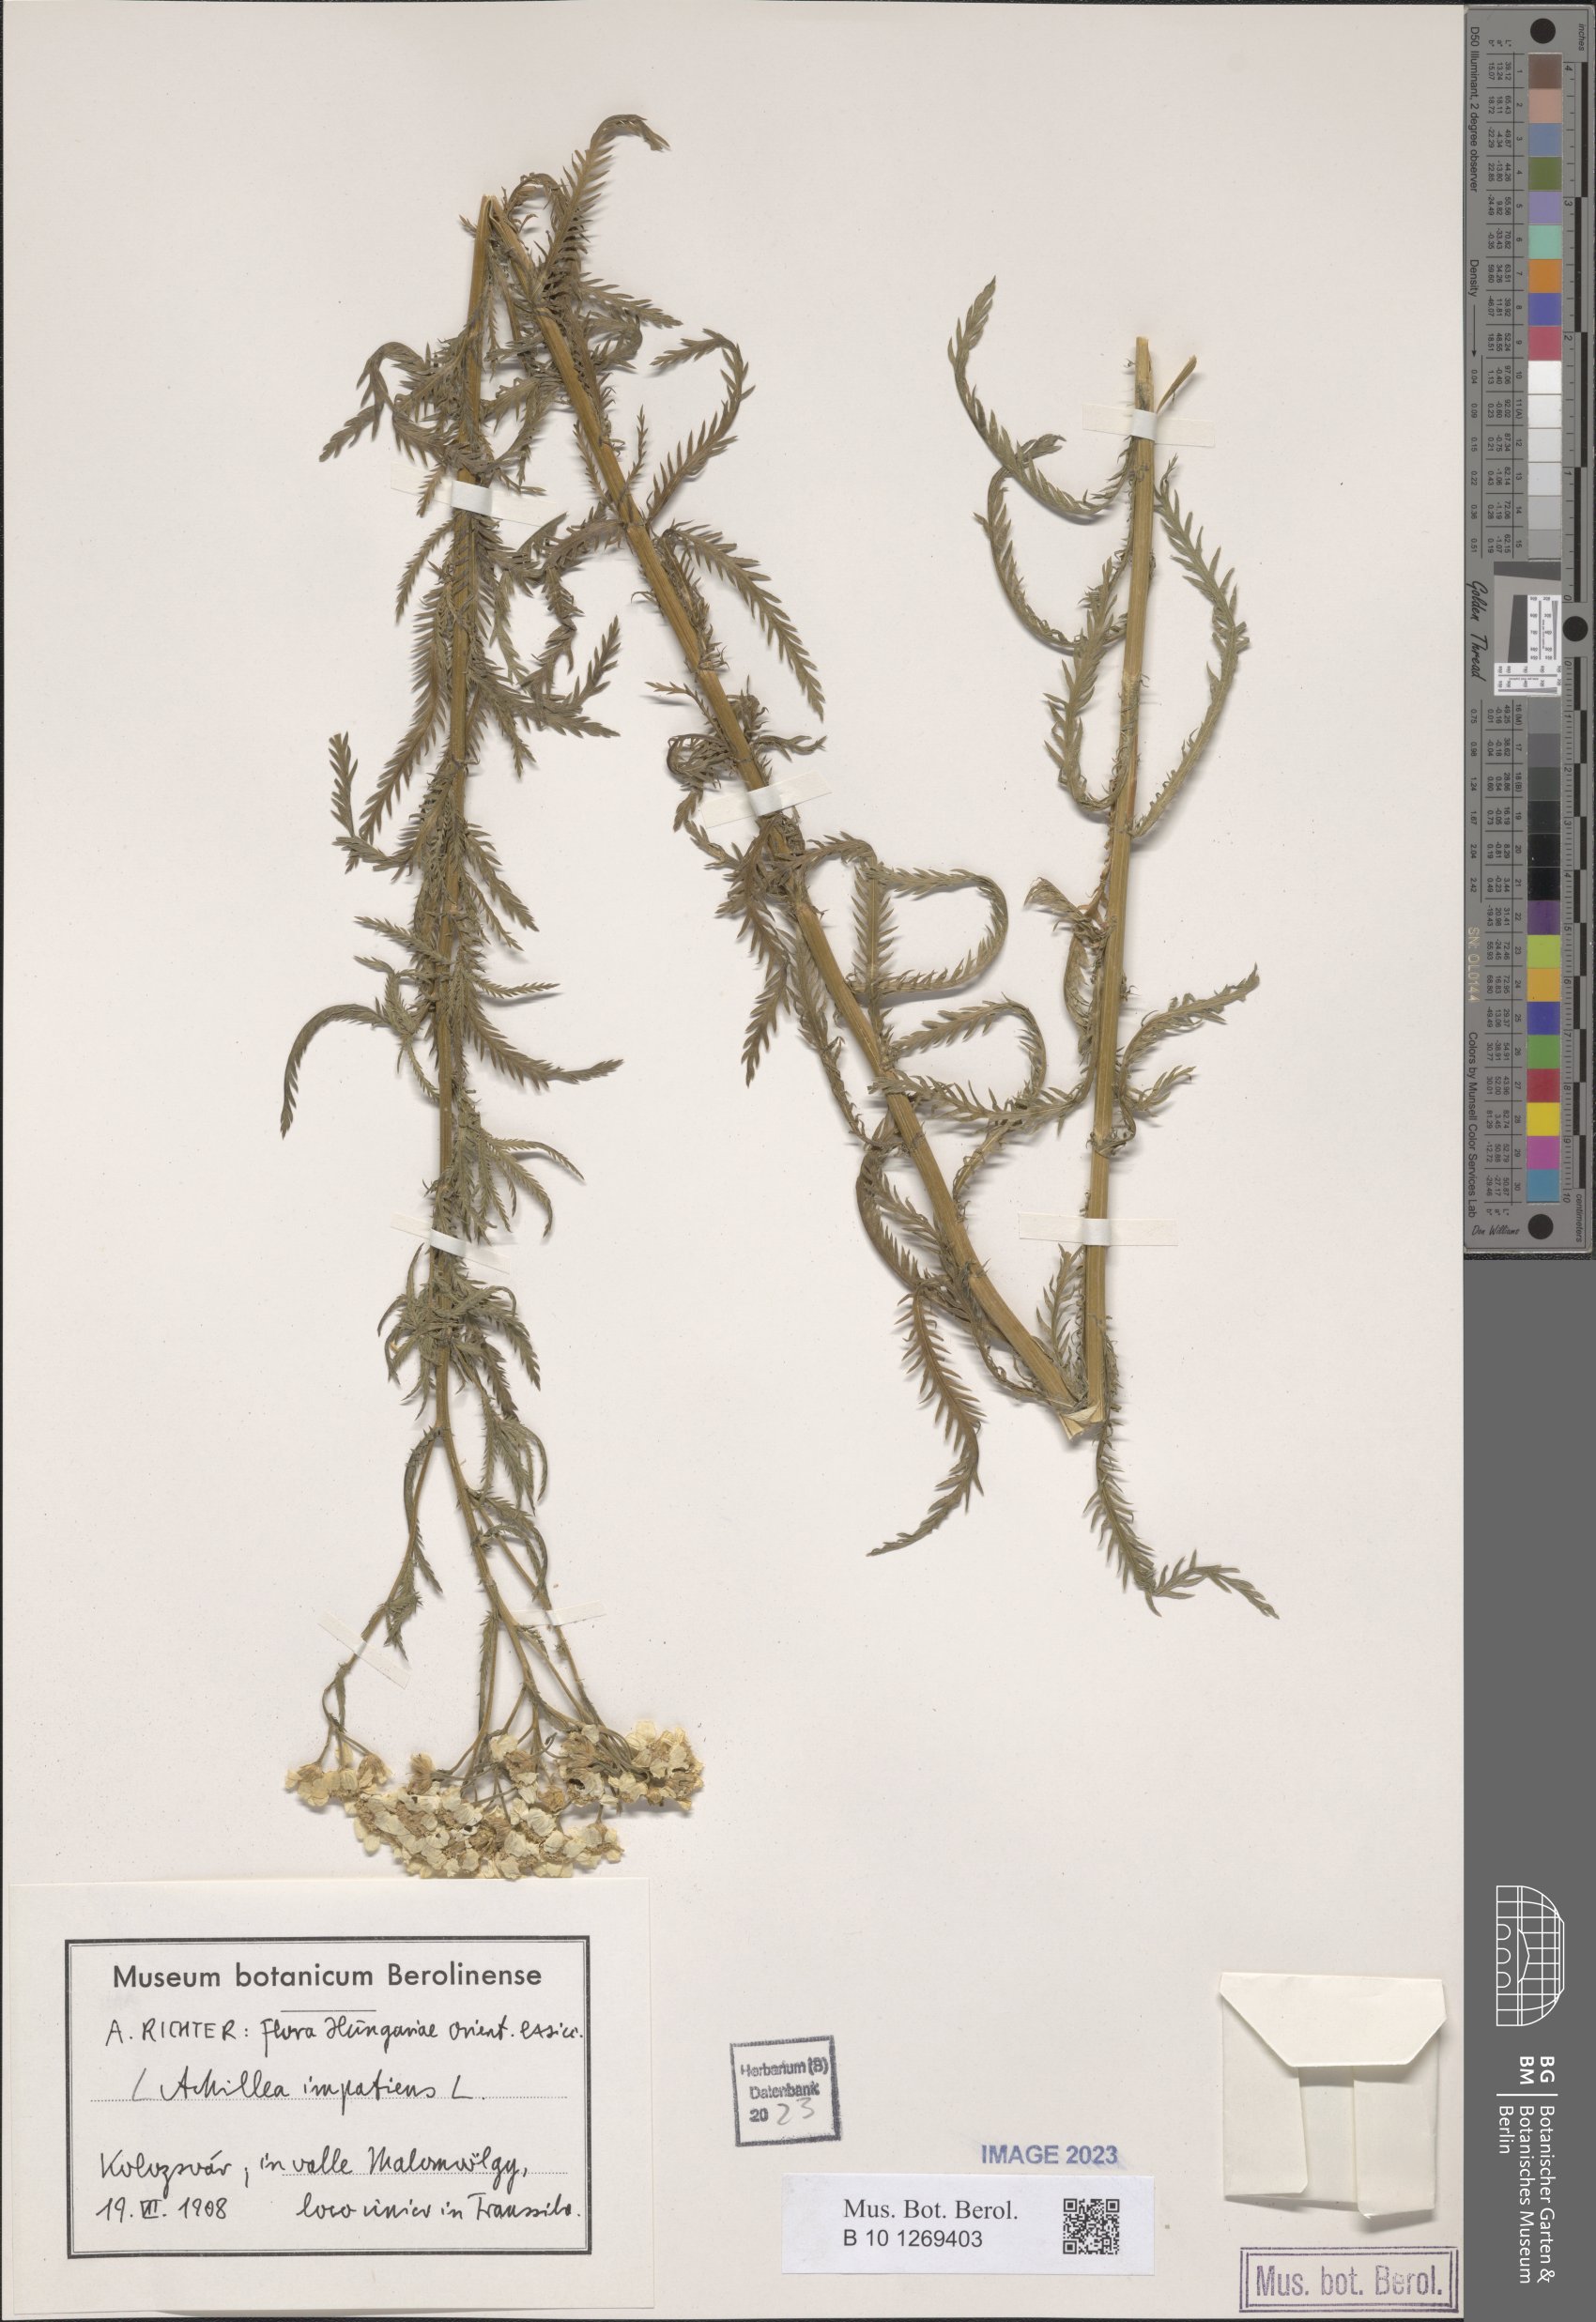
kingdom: Plantae
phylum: Tracheophyta
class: Magnoliopsida
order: Asterales
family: Asteraceae
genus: Achillea
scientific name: Achillea impatiens
